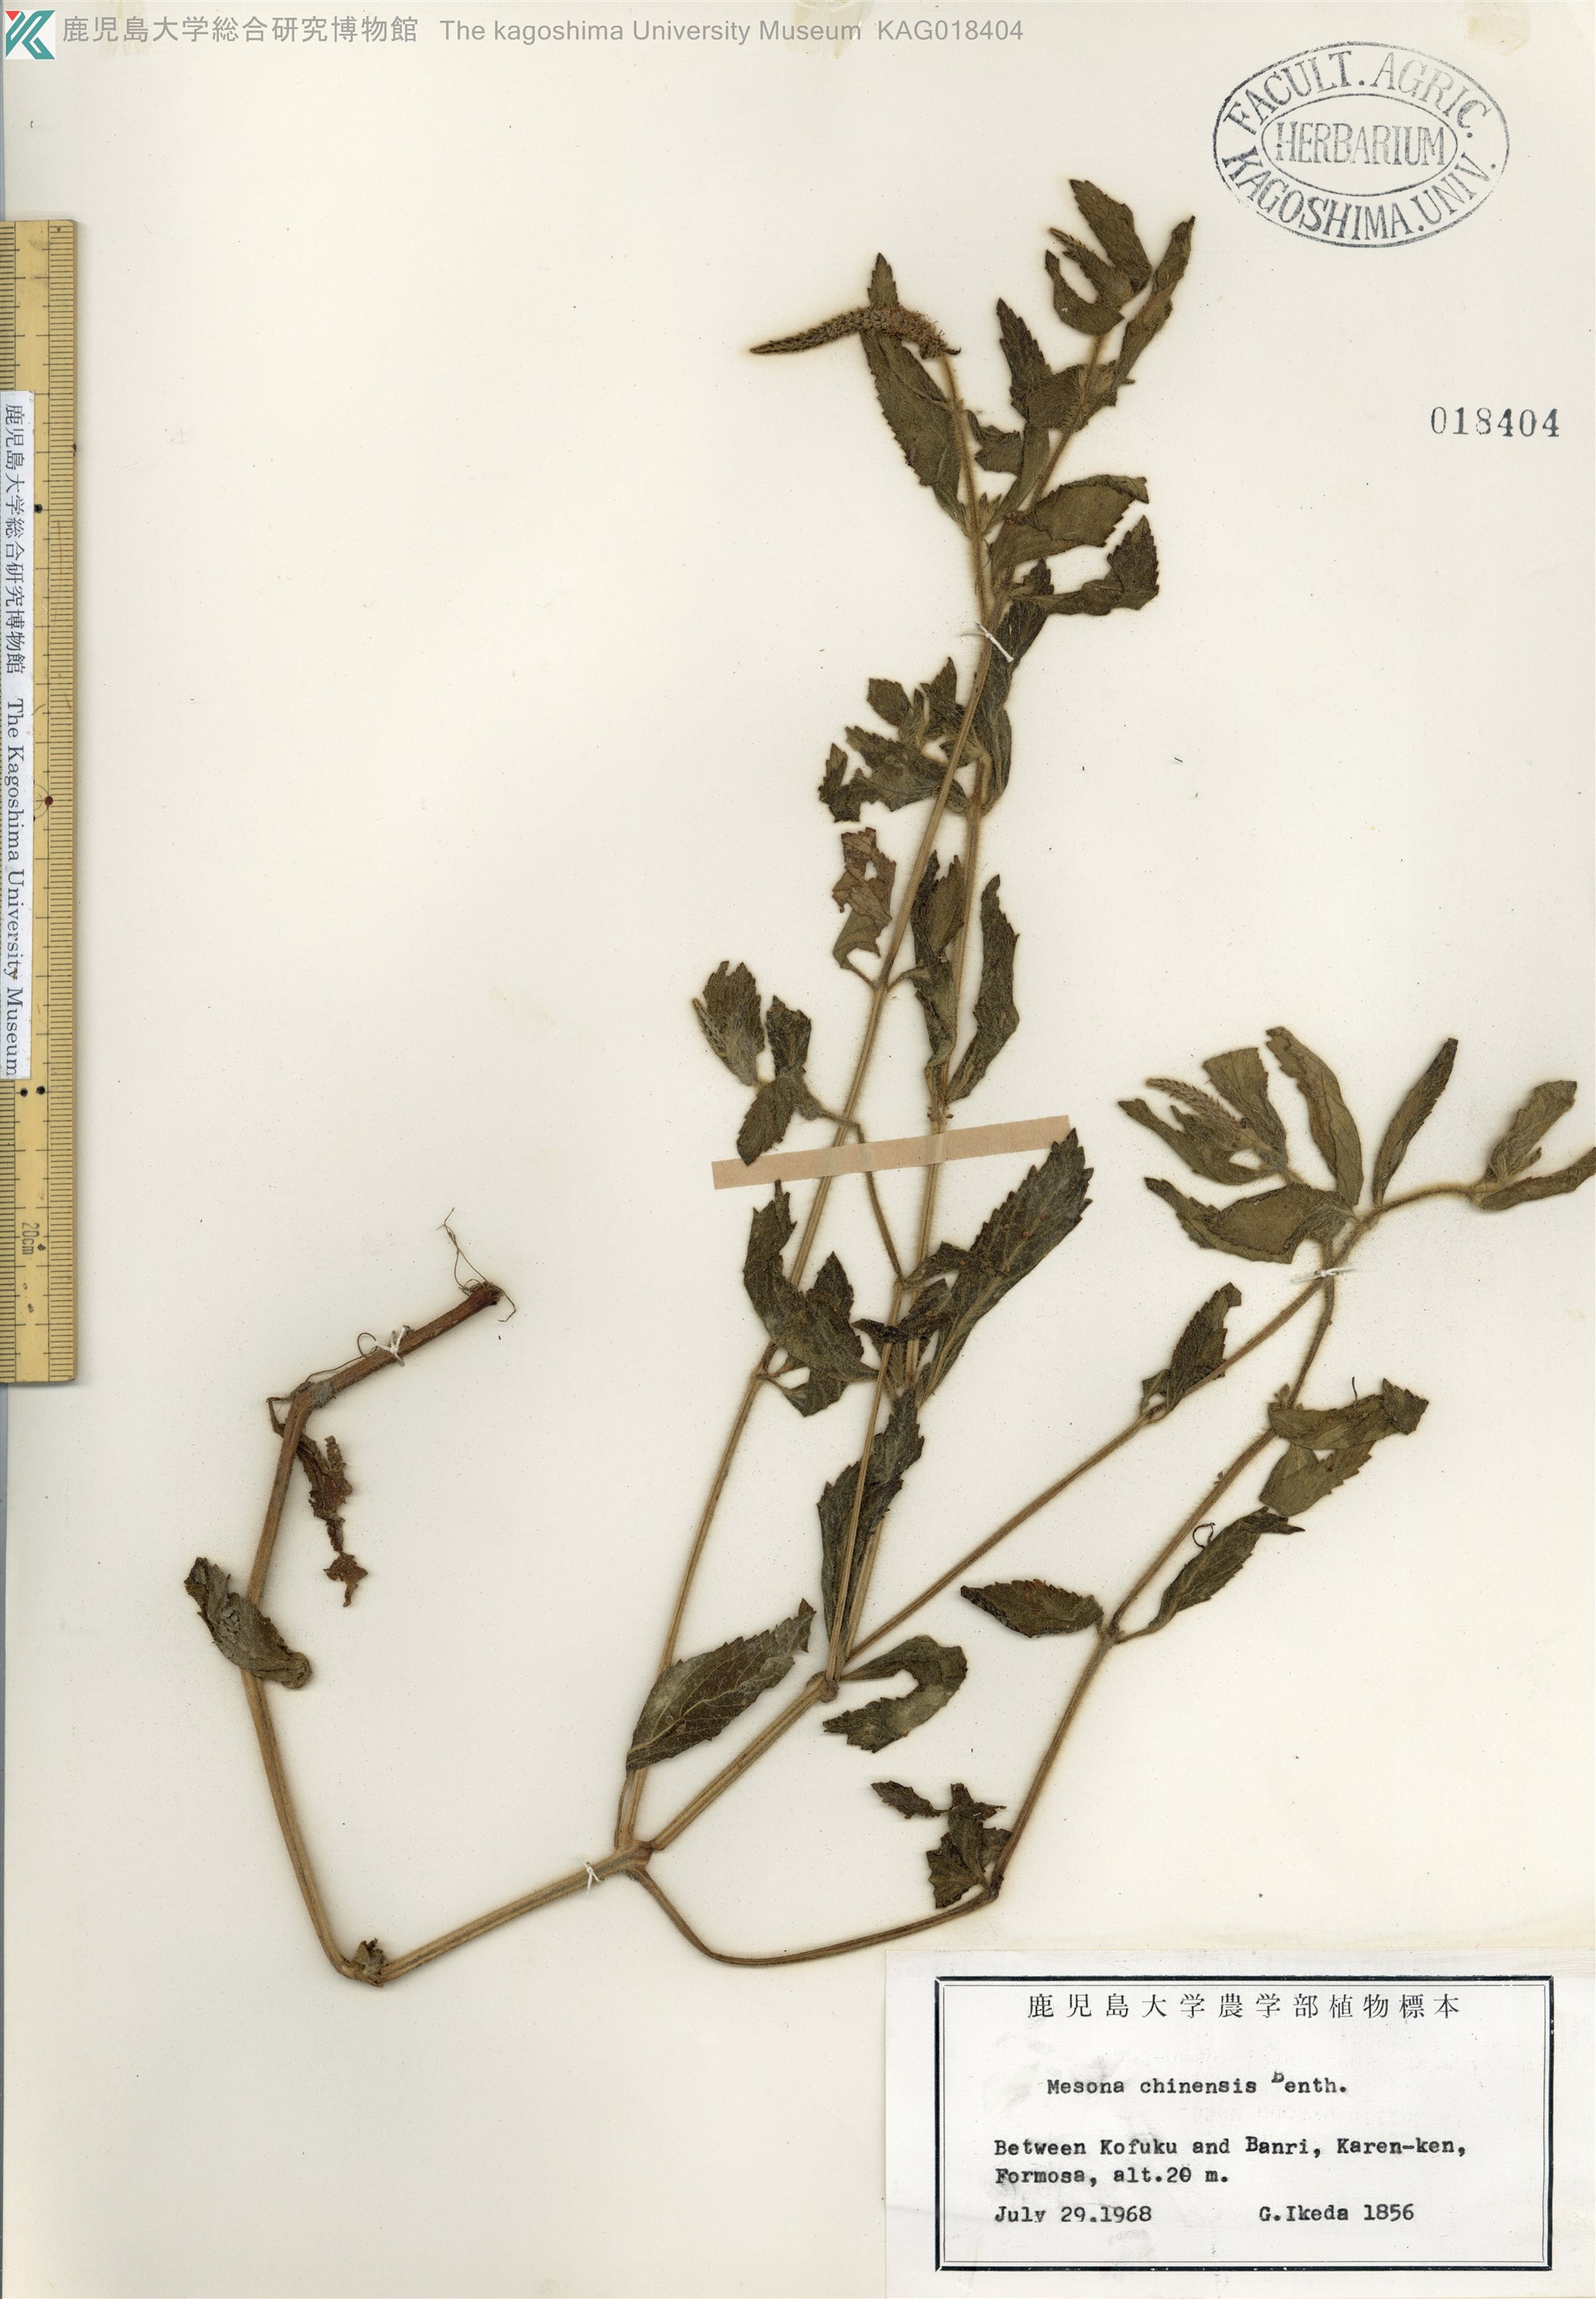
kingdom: Plantae
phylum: Tracheophyta
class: Magnoliopsida
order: Lamiales
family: Lamiaceae
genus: Platostoma
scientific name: Platostoma palustre
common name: Black cincau
